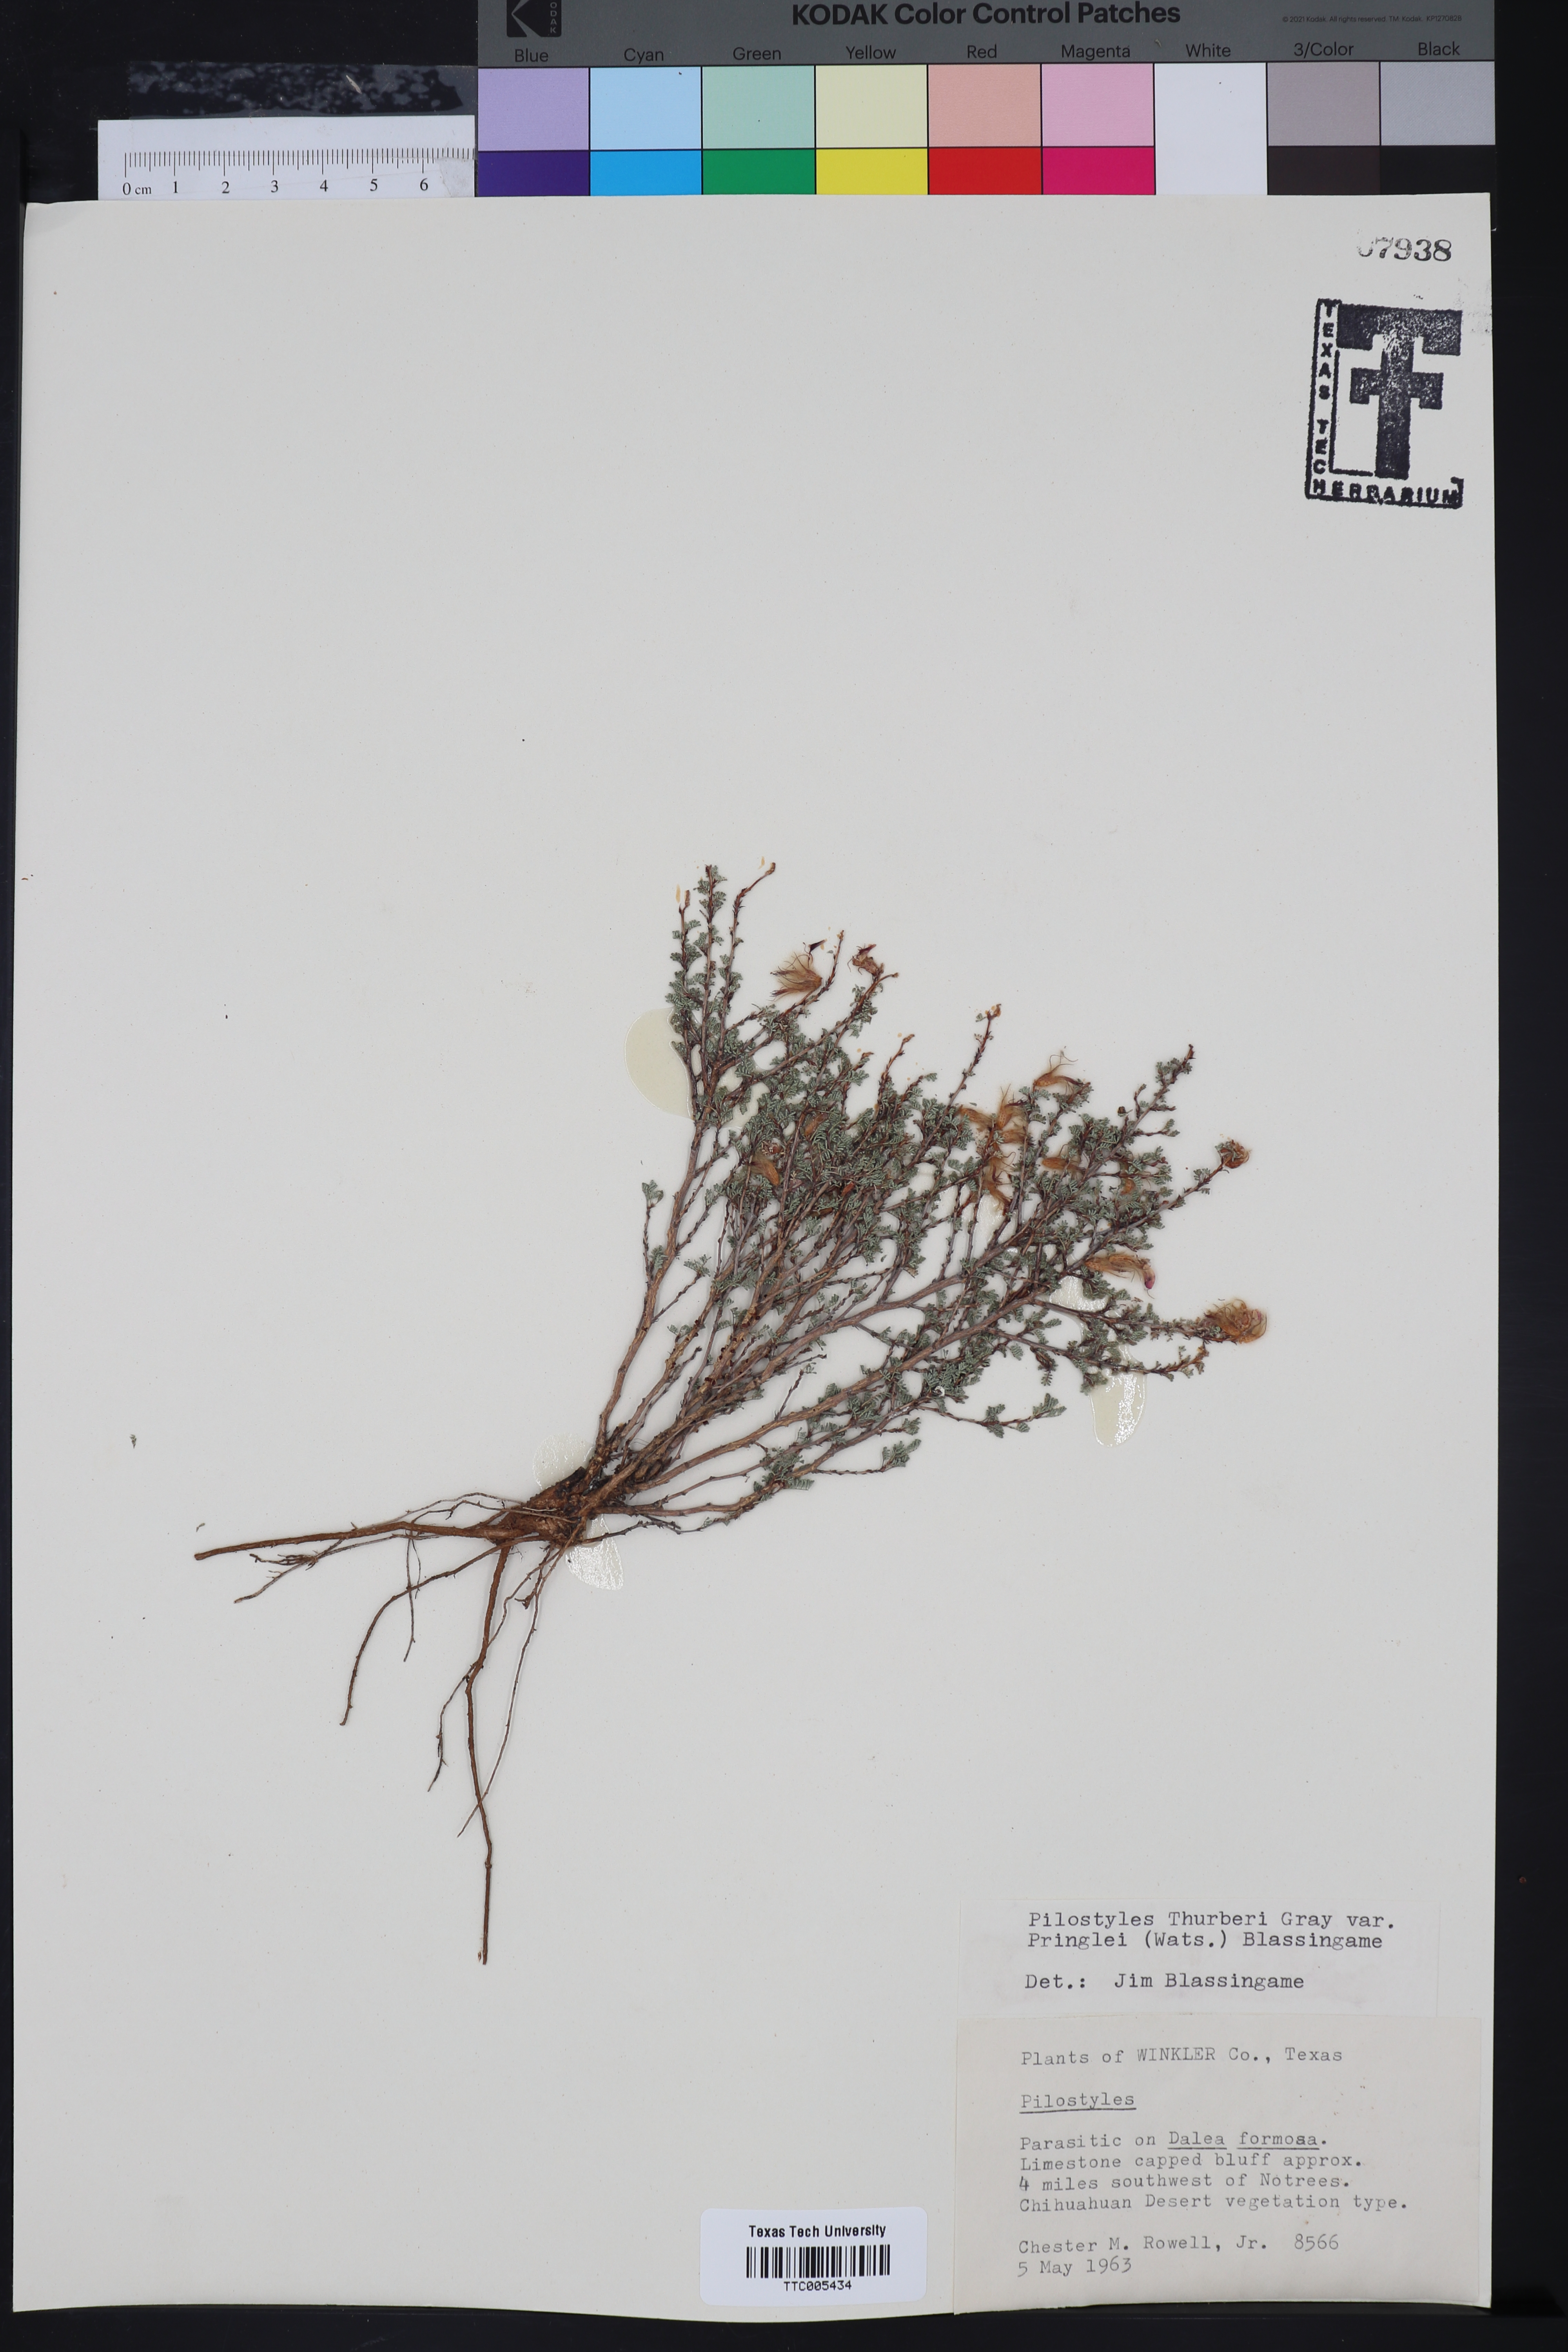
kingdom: Plantae
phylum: Tracheophyta
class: Magnoliopsida
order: Cucurbitales
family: Apodanthaceae
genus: Pilostyles
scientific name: Pilostyles thurberi
